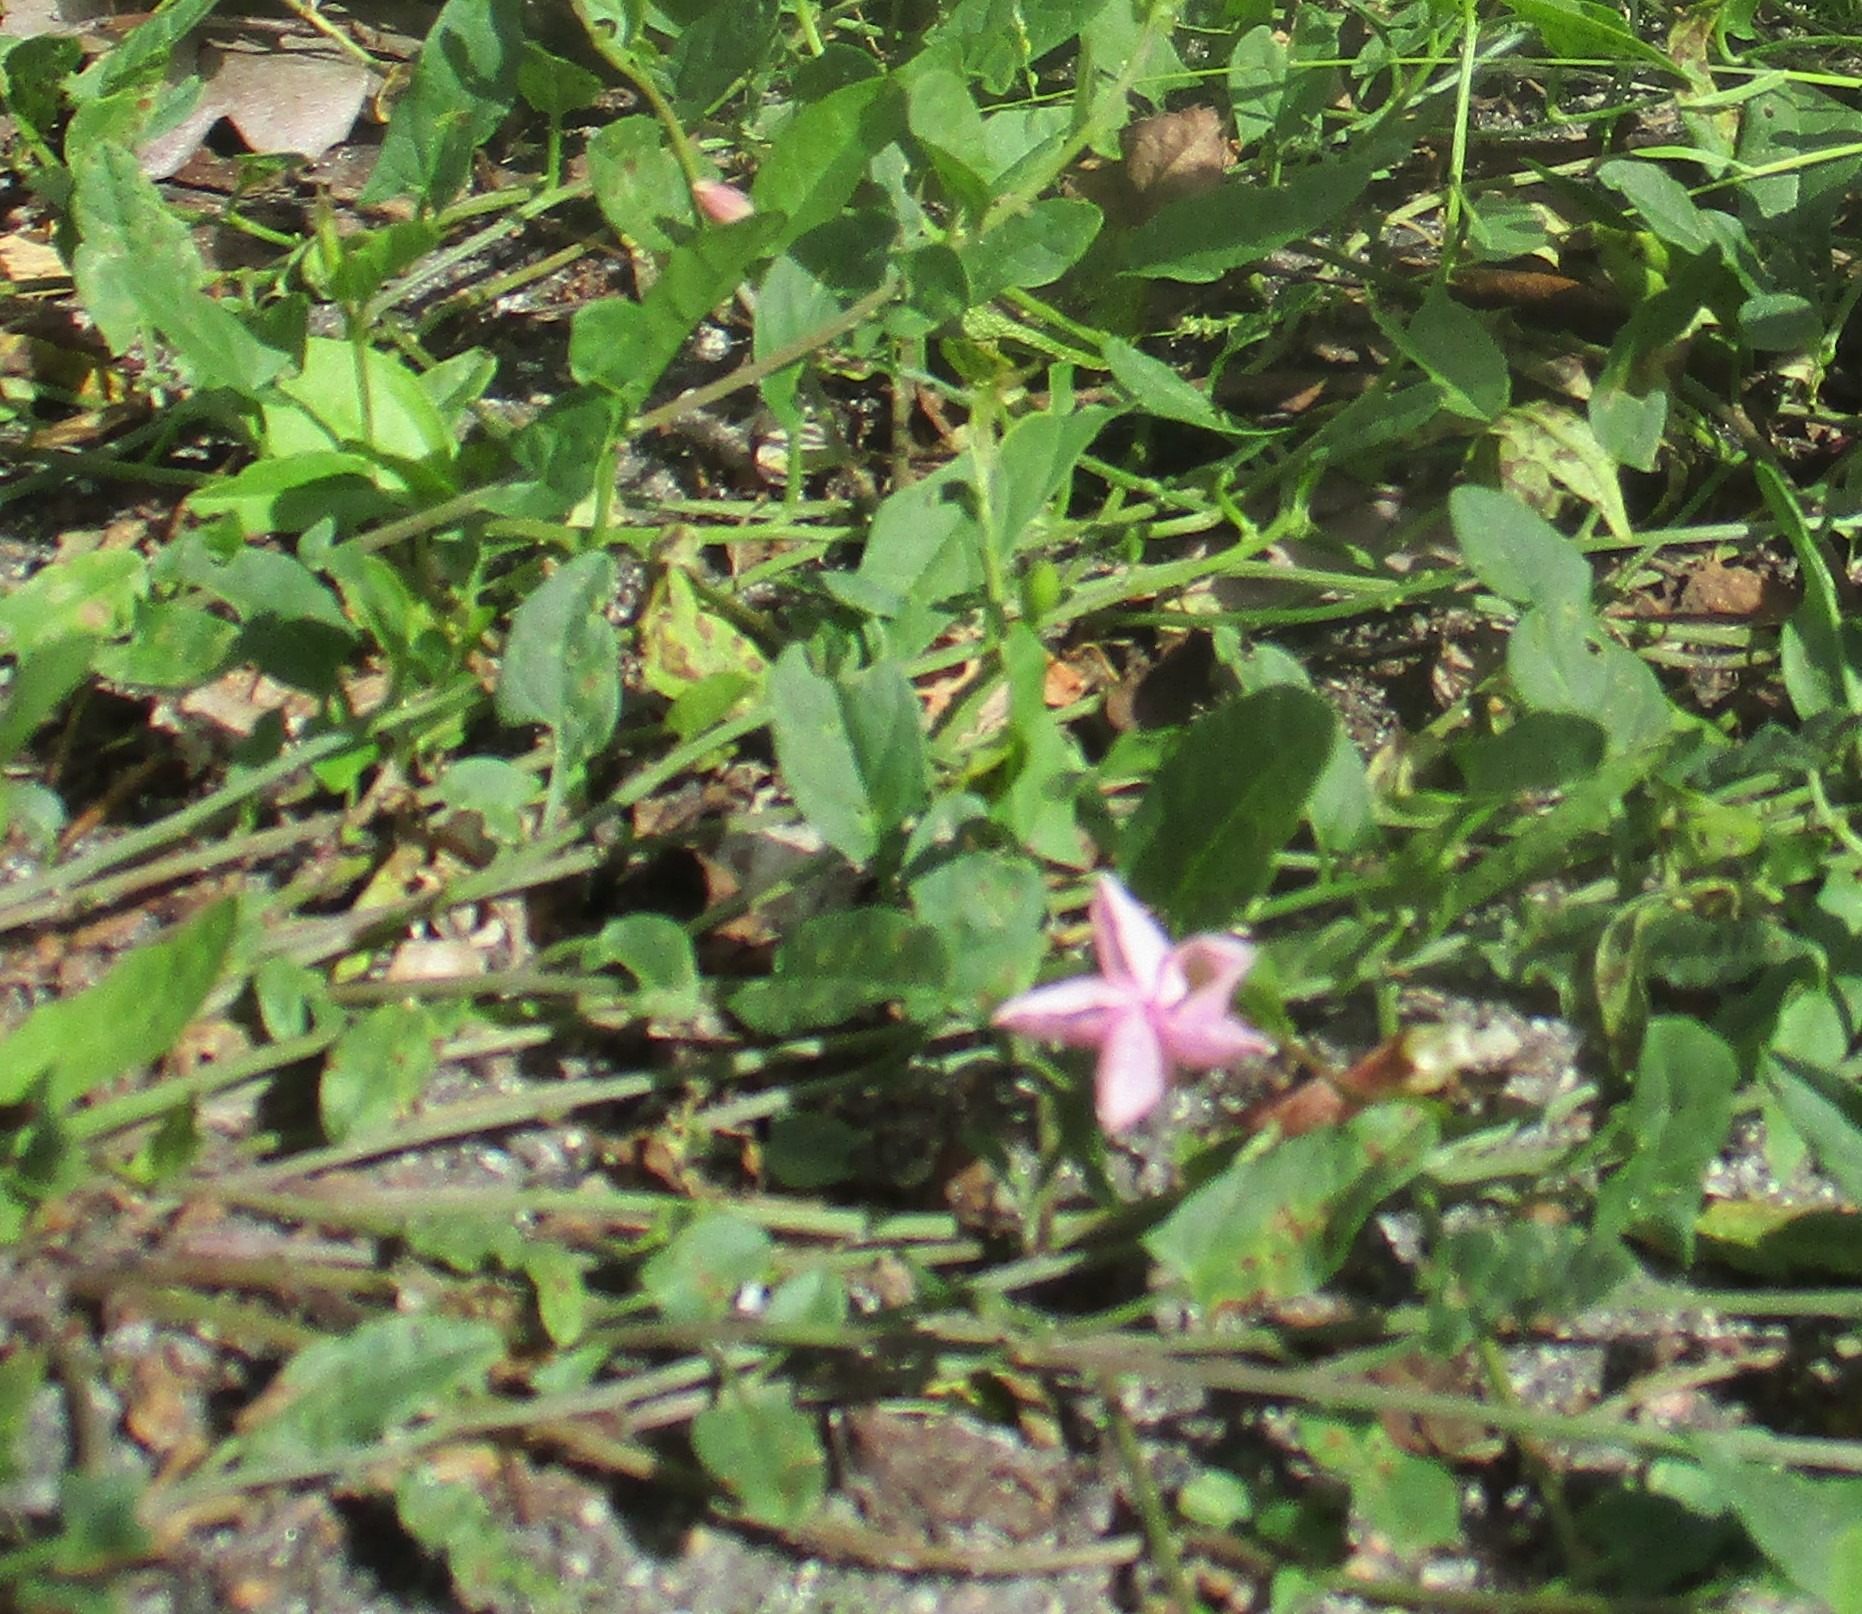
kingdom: Plantae
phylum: Tracheophyta
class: Magnoliopsida
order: Solanales
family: Convolvulaceae
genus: Convolvulus
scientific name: Convolvulus arvensis
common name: Ager-snerle
